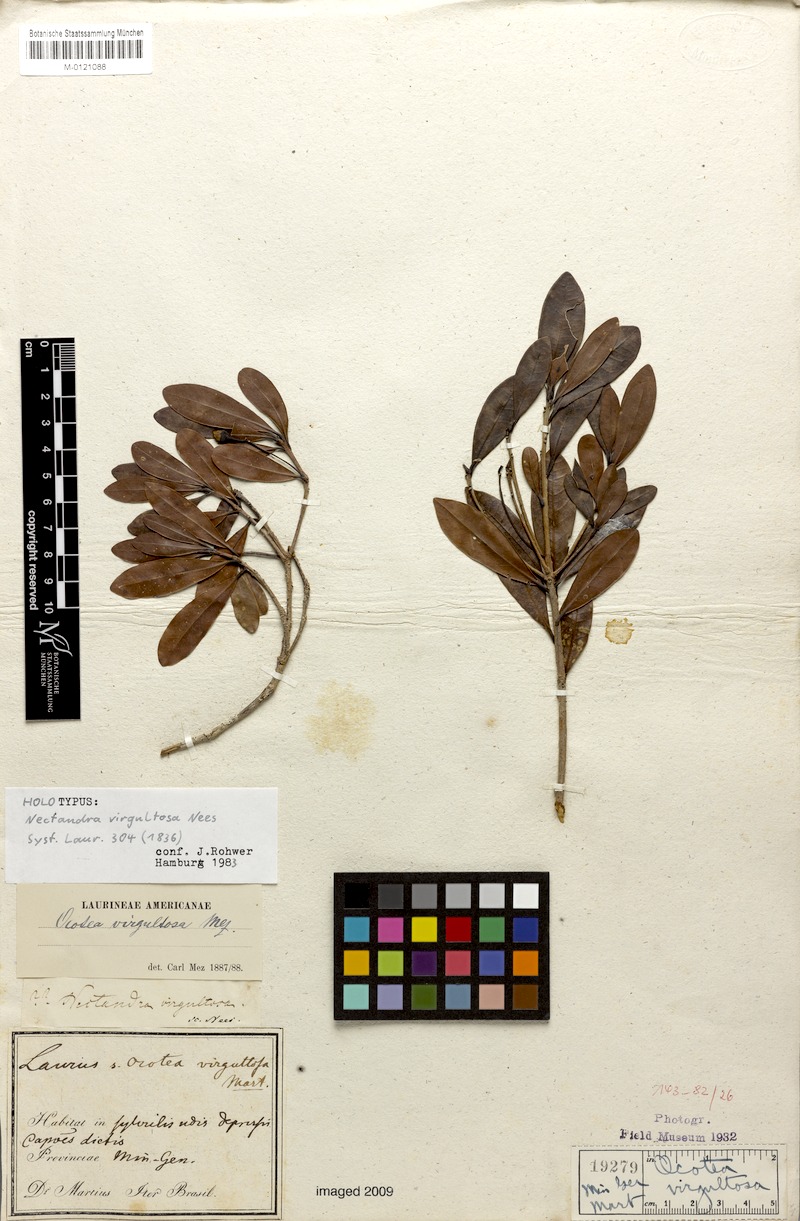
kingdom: Plantae
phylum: Tracheophyta
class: Magnoliopsida
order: Laurales
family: Lauraceae
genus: Ocotea
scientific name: Ocotea virgultosa
